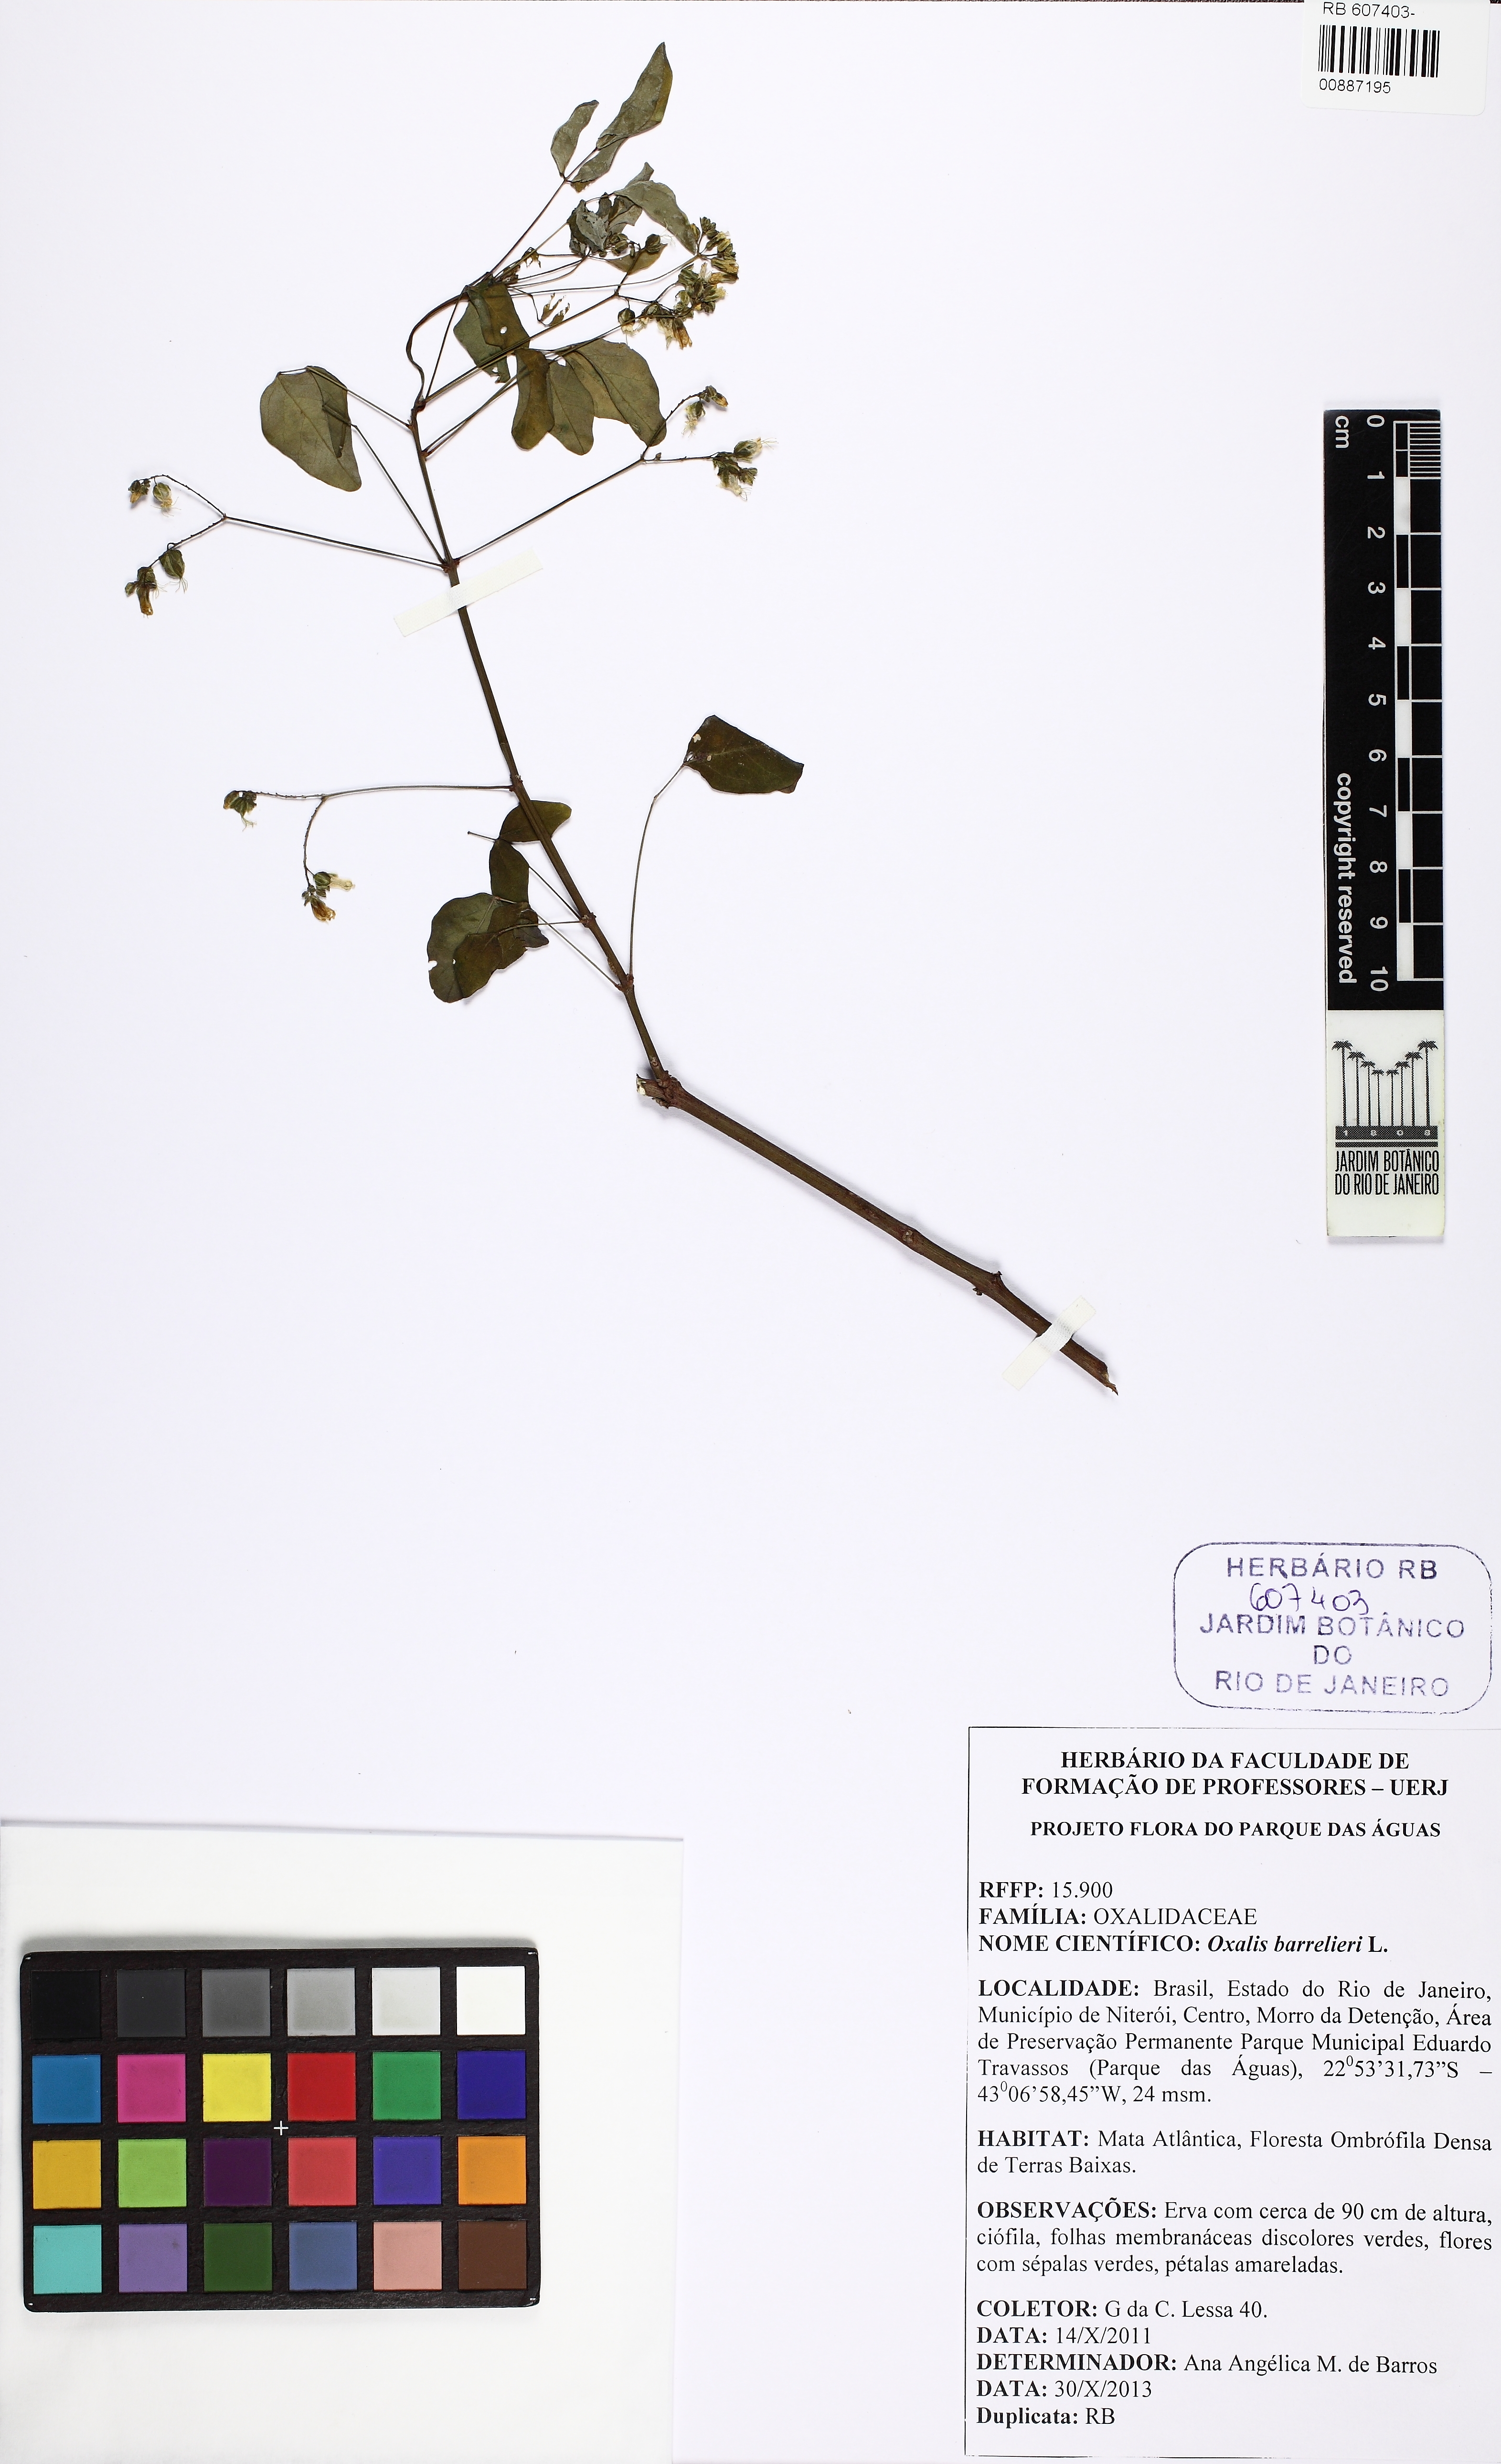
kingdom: Plantae
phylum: Tracheophyta
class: Magnoliopsida
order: Oxalidales
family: Oxalidaceae
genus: Oxalis
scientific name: Oxalis barrelieri
